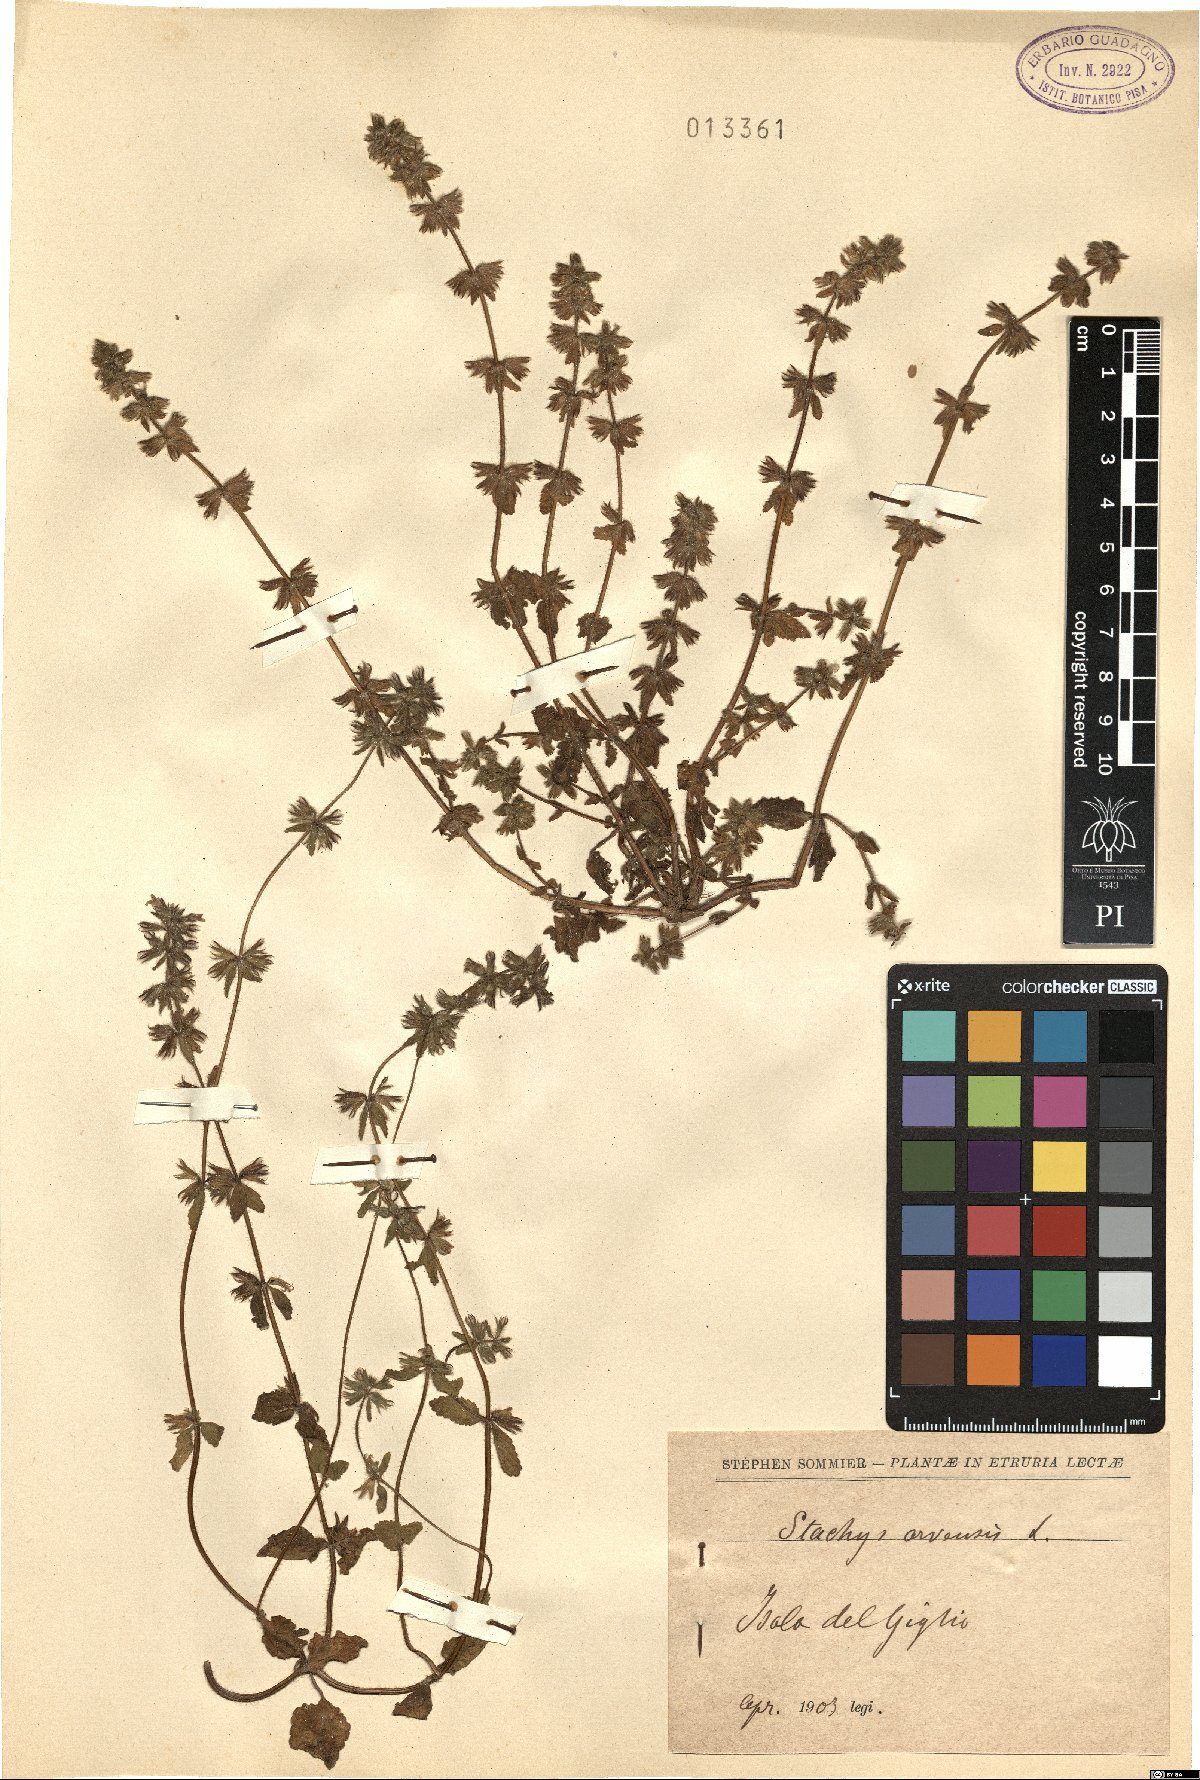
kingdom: Plantae
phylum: Tracheophyta
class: Magnoliopsida
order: Lamiales
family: Lamiaceae
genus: Stachys
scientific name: Stachys arvensis
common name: Field woundwort
